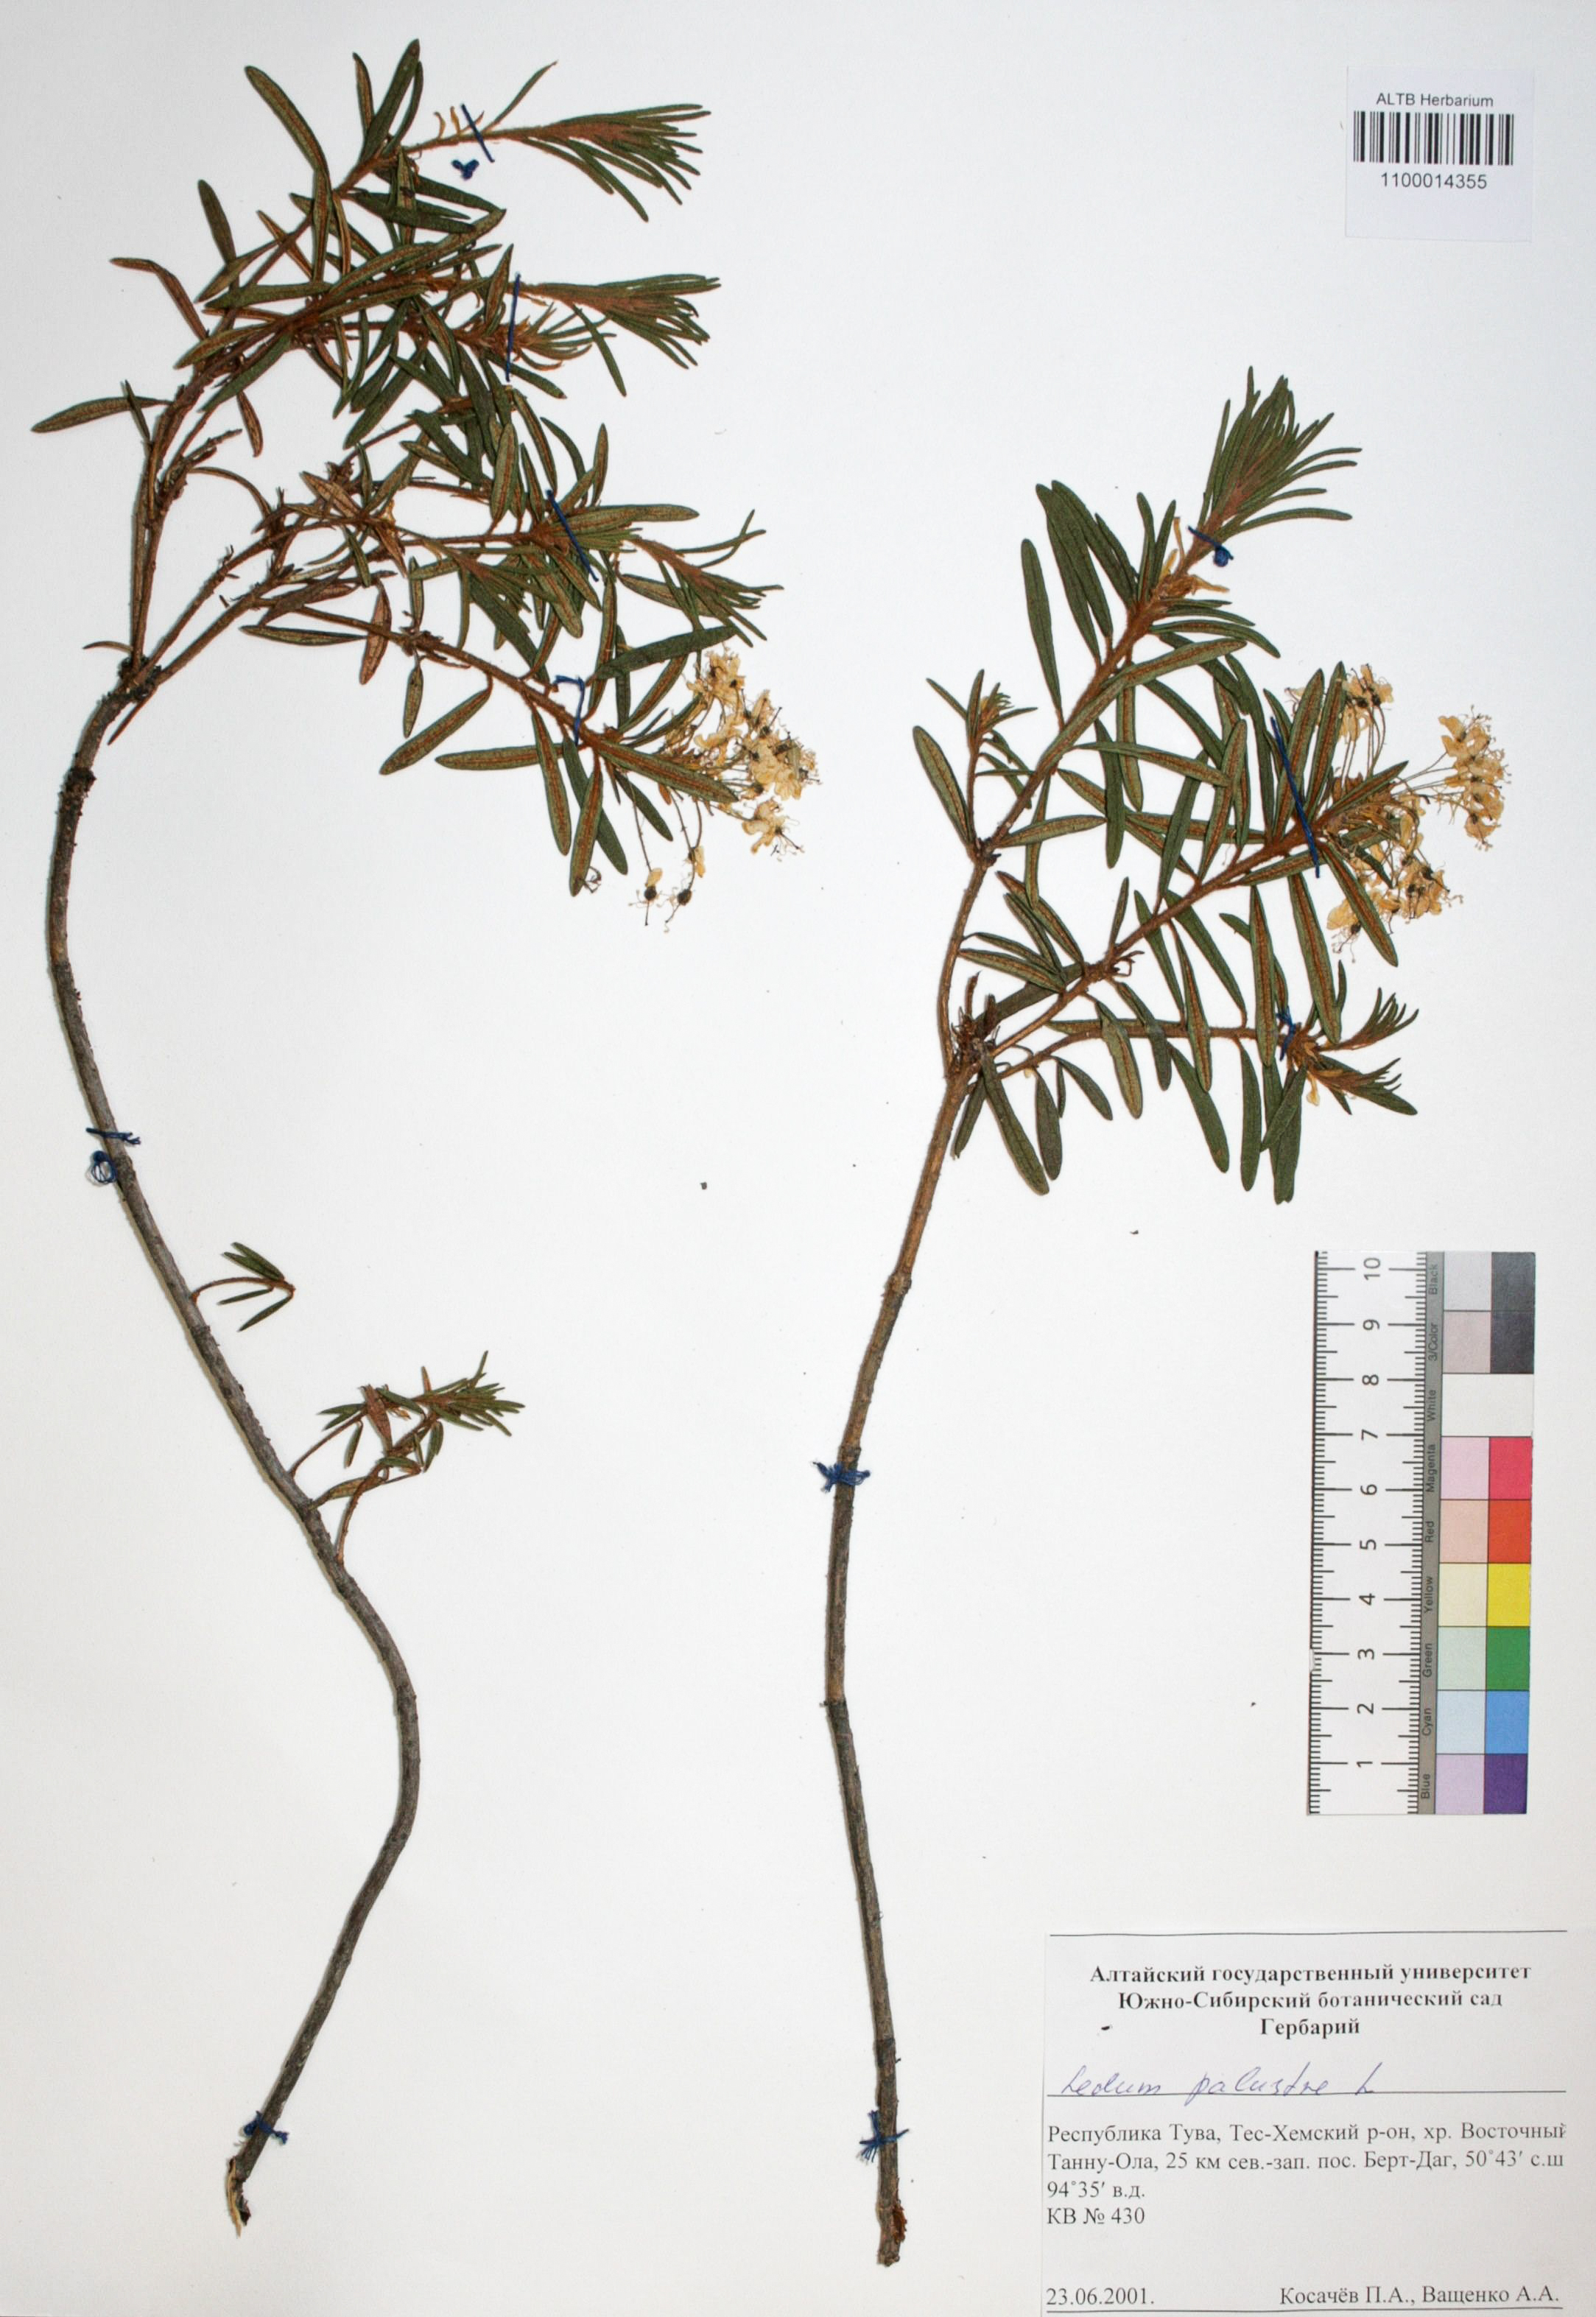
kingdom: Plantae
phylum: Tracheophyta
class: Magnoliopsida
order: Ericales
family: Ericaceae
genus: Rhododendron
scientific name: Rhododendron tomentosum
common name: Marsh labrador tea
